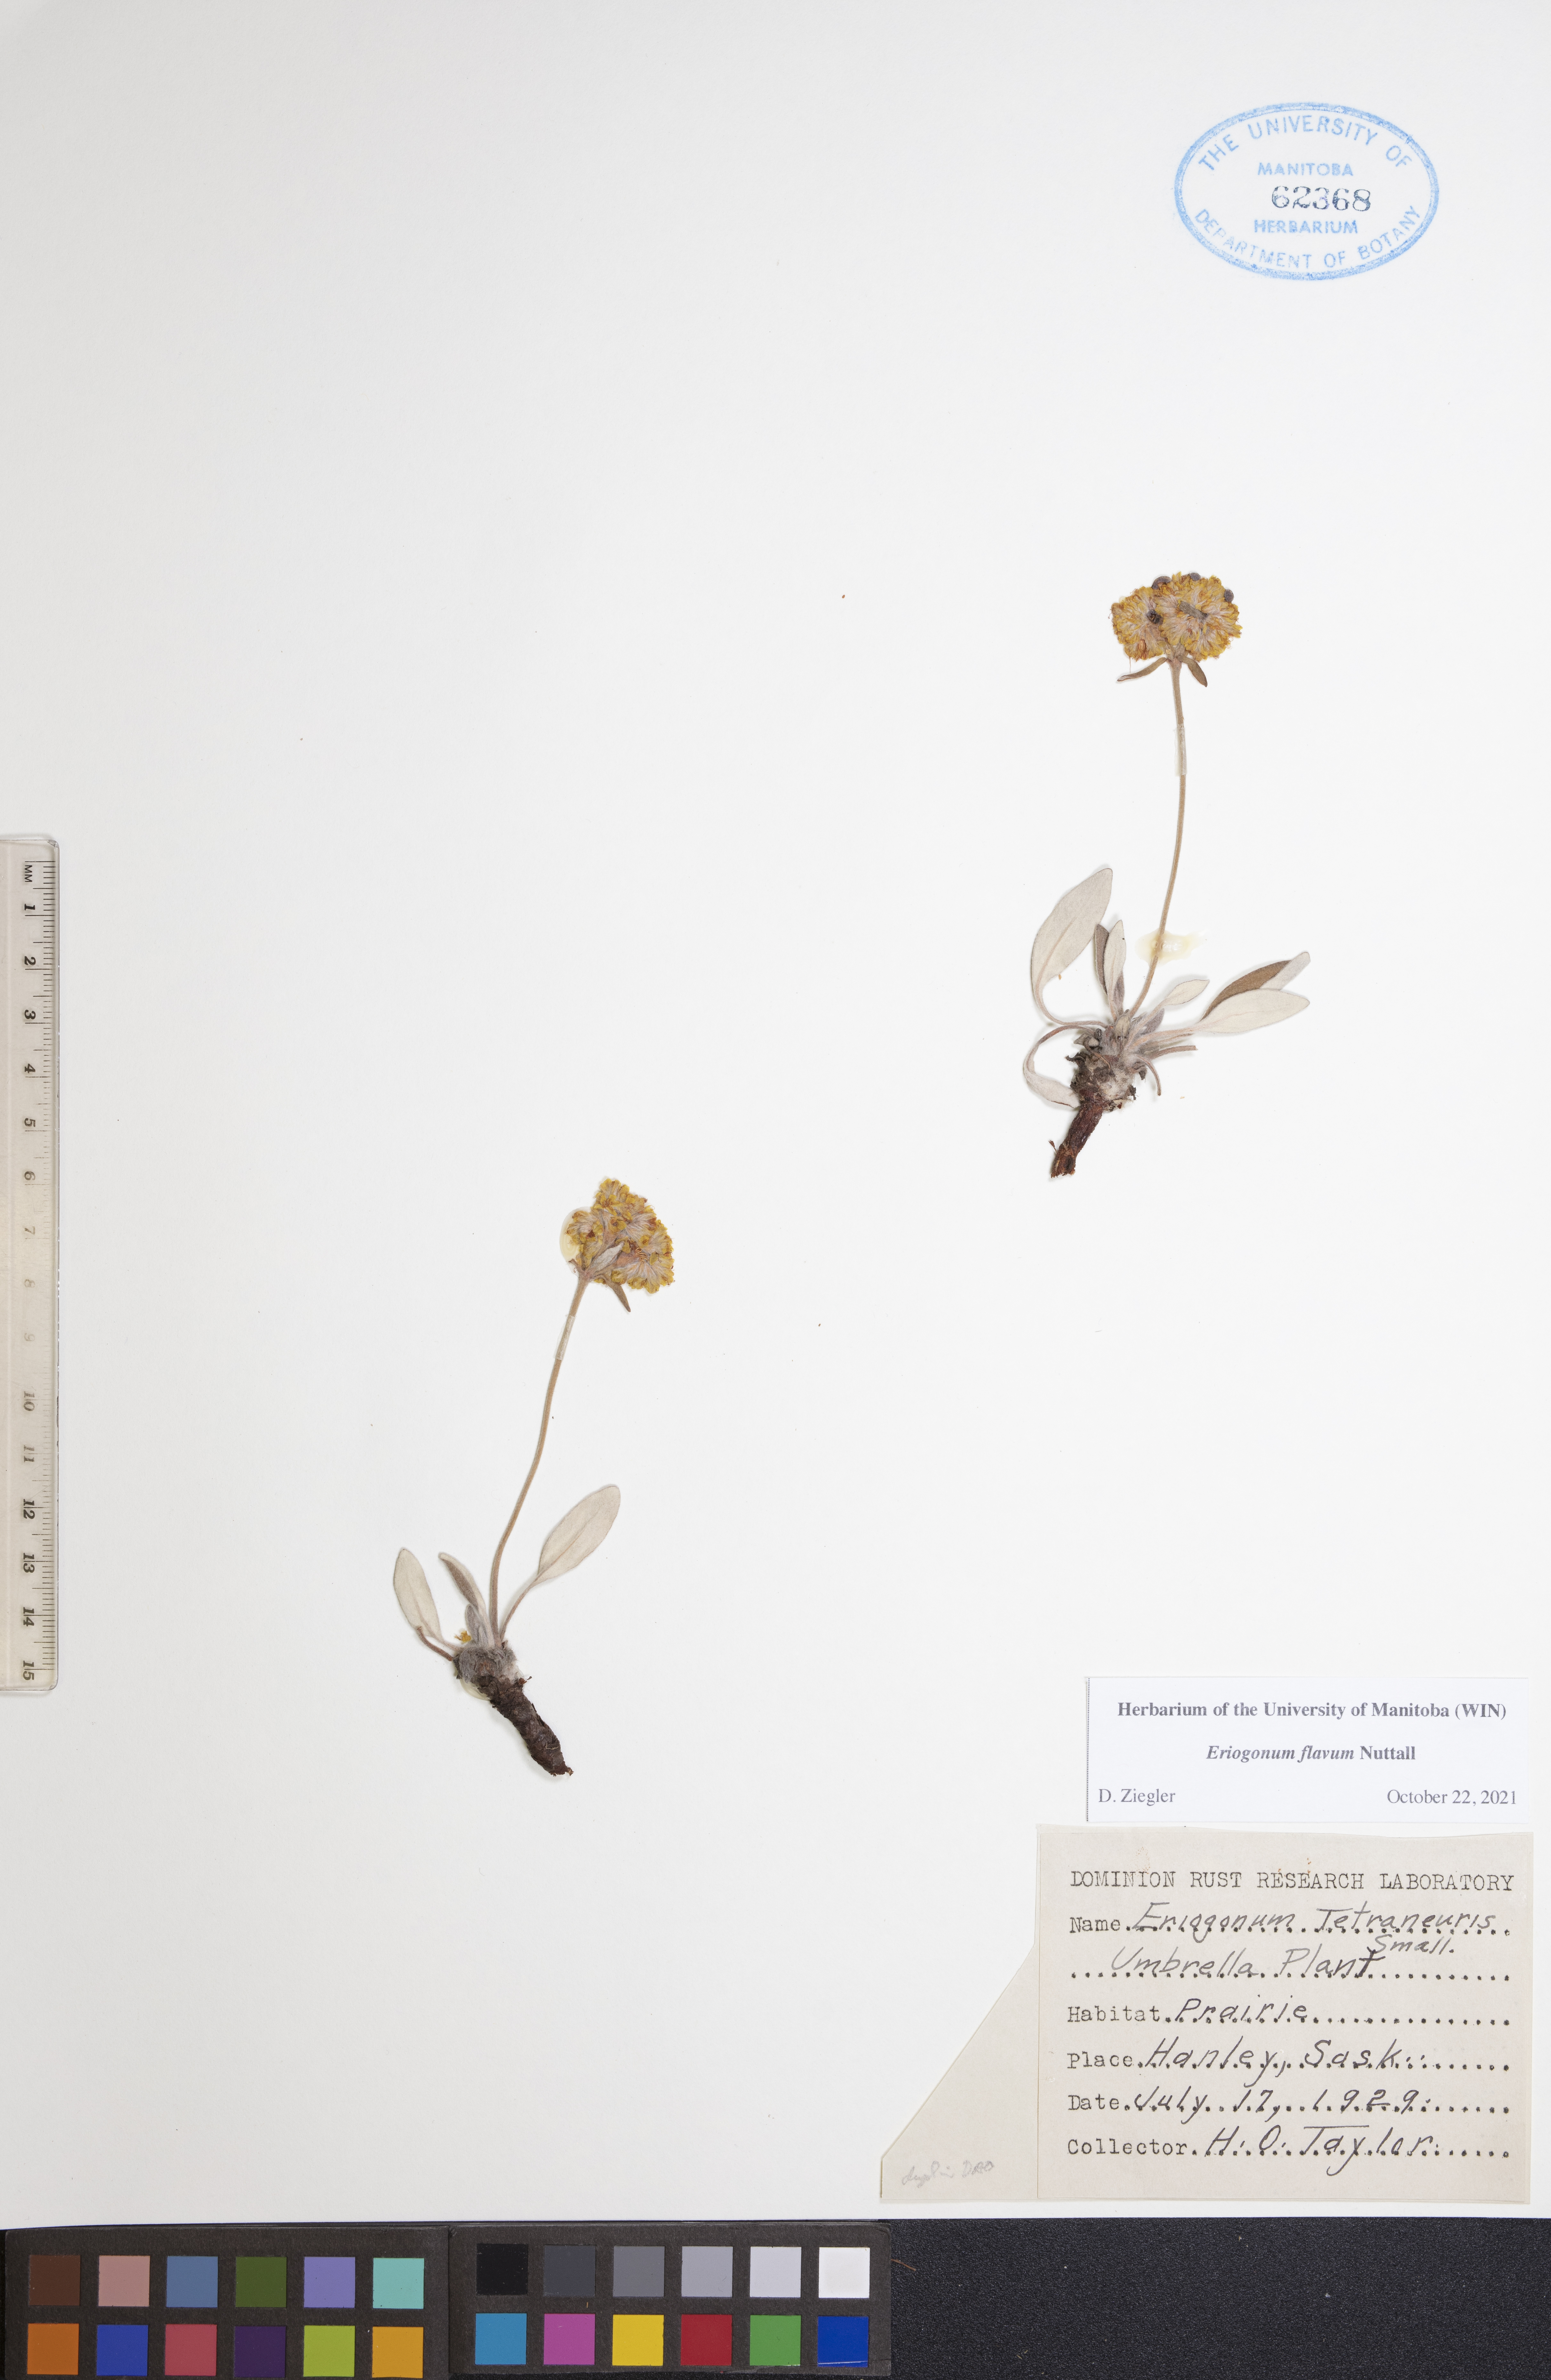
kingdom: Plantae
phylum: Tracheophyta
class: Magnoliopsida
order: Caryophyllales
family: Polygonaceae
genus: Eriogonum
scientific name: Eriogonum flavum
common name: Alpine golden wild buckwheat
